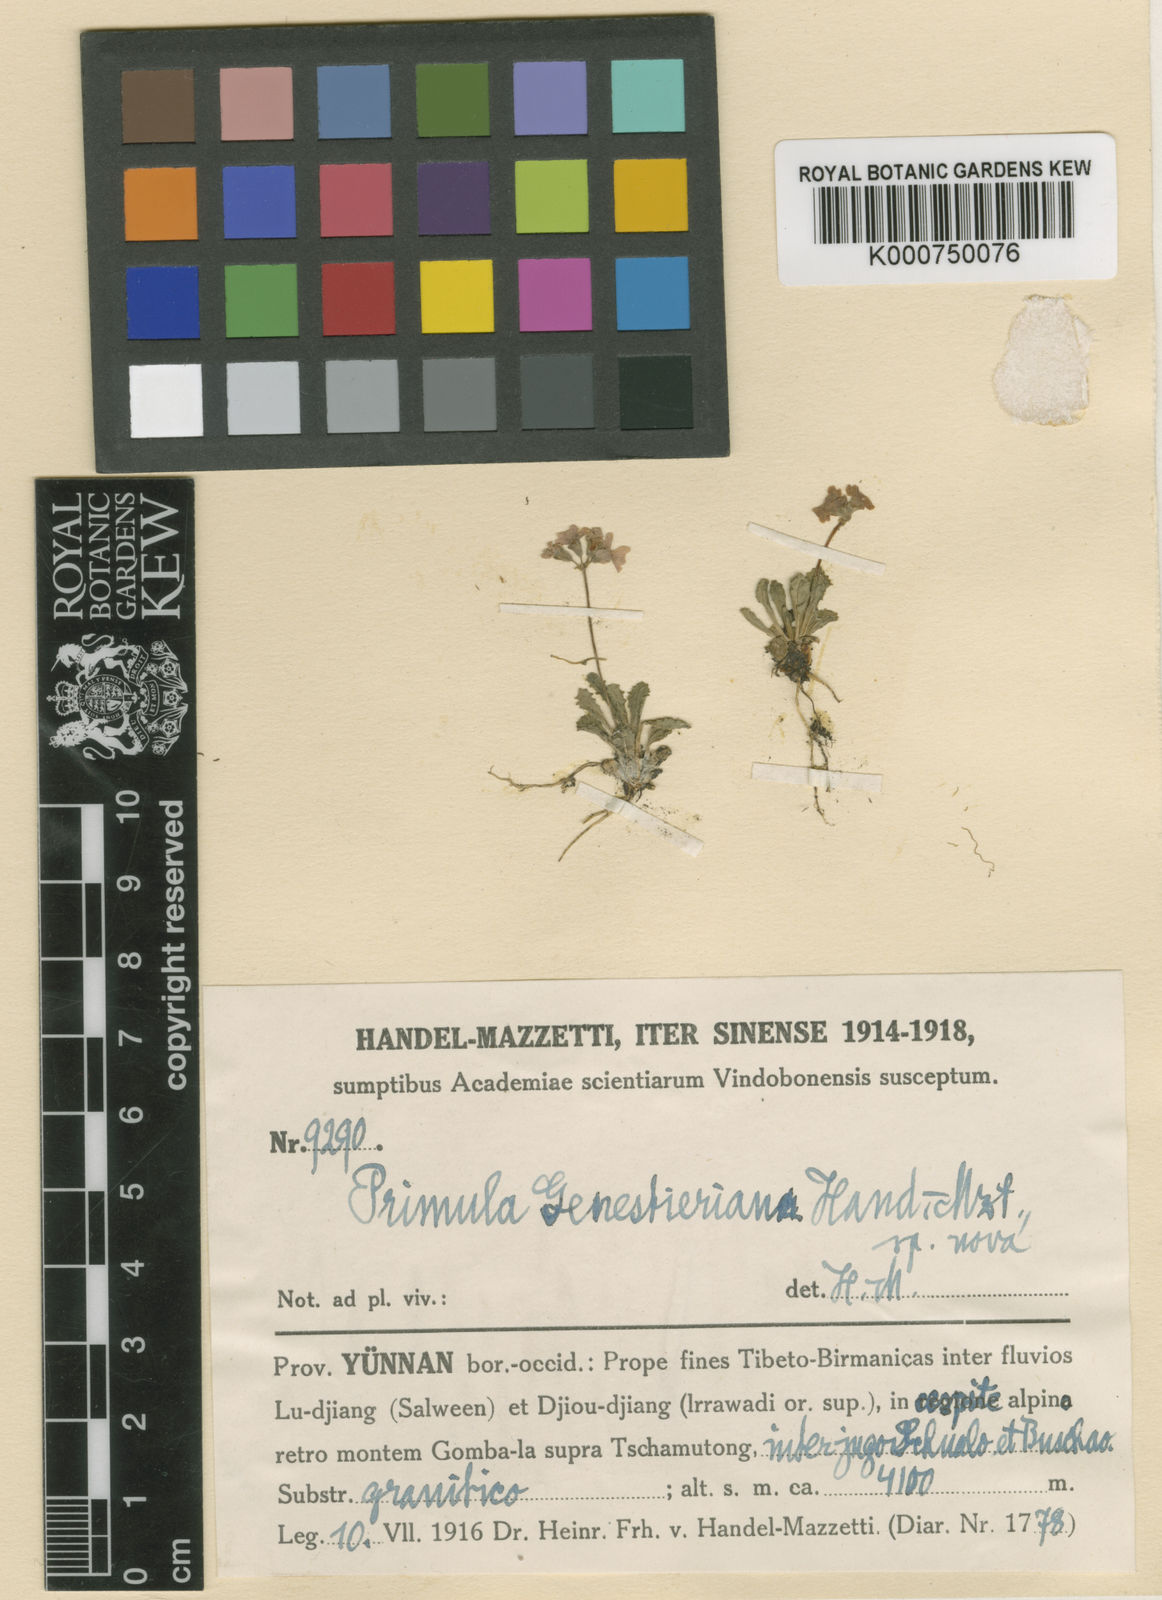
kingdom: Plantae
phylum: Tracheophyta
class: Magnoliopsida
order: Ericales
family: Primulaceae
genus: Primula
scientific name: Primula
